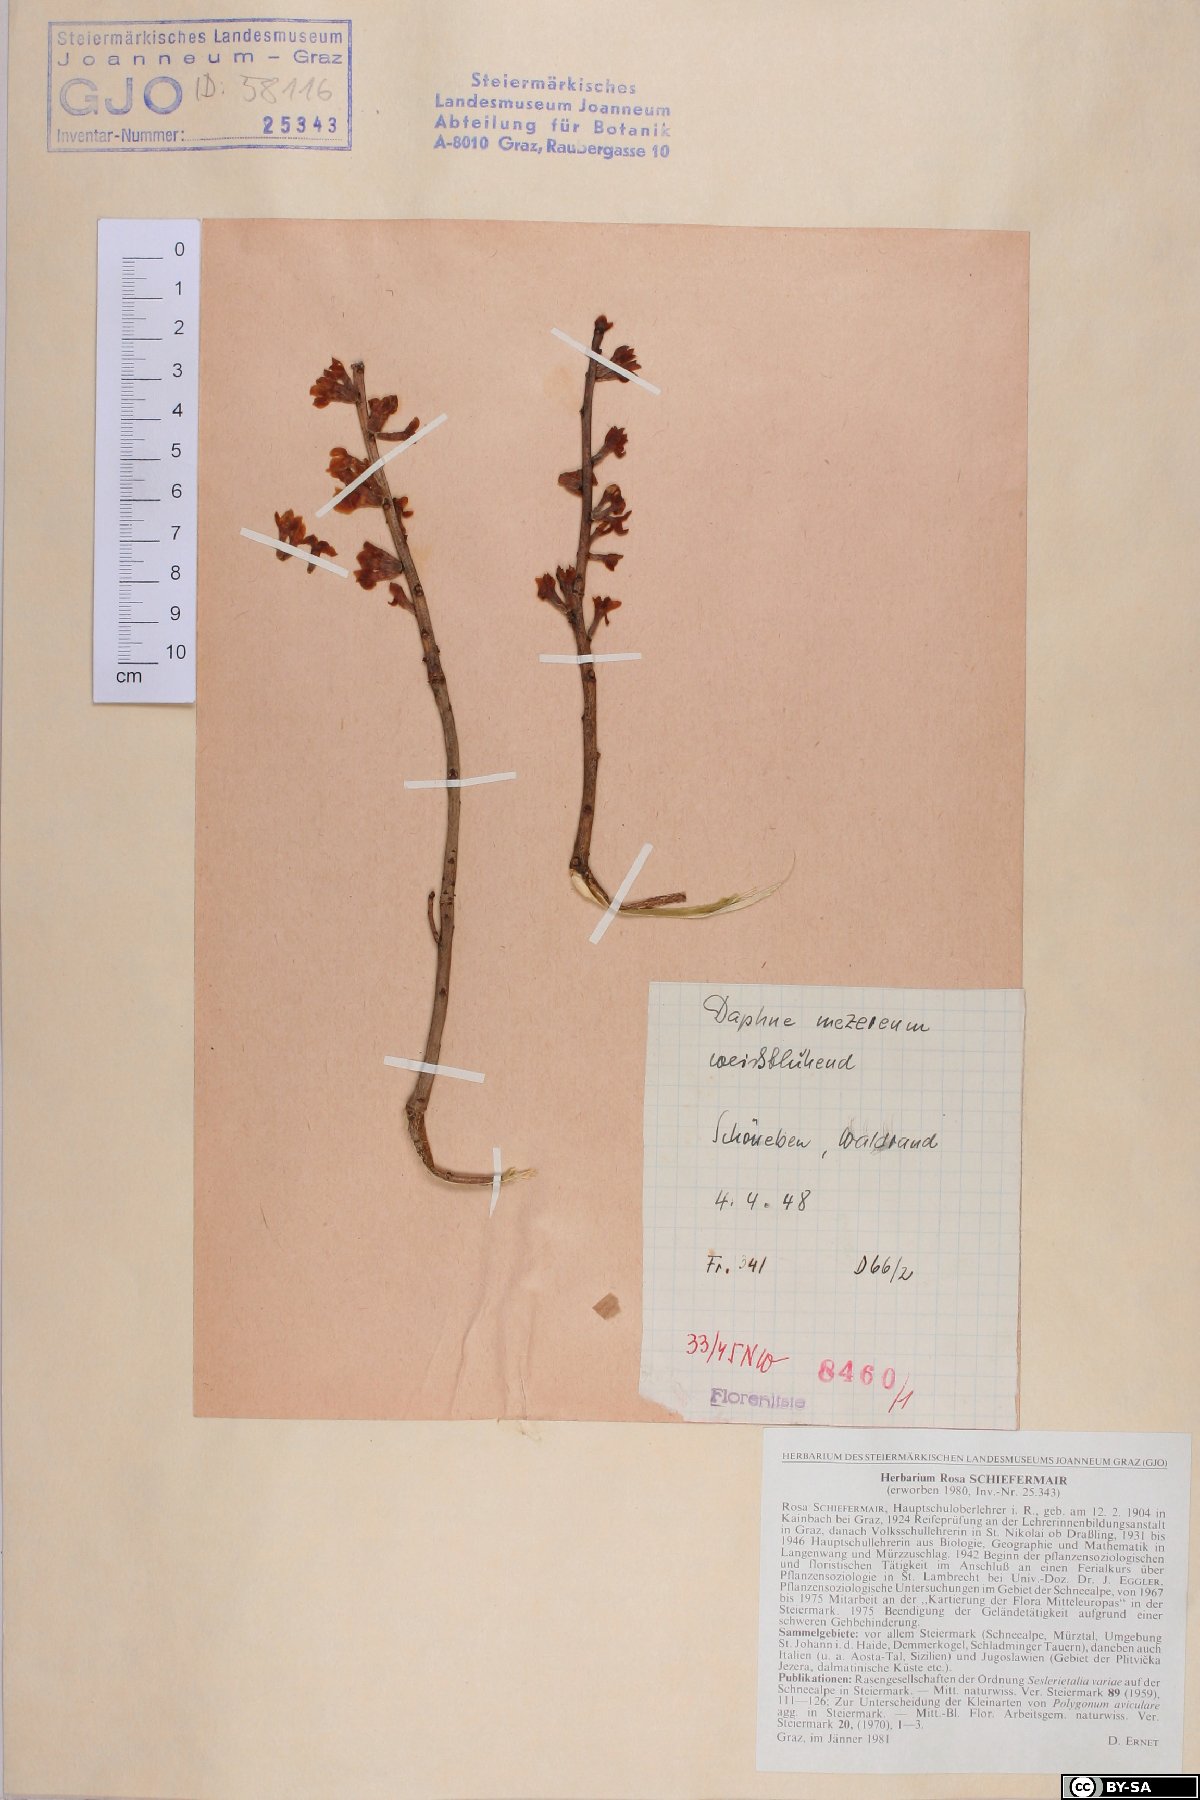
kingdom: Plantae
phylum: Tracheophyta
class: Magnoliopsida
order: Malvales
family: Thymelaeaceae
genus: Daphne
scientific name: Daphne mezereum
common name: Mezereon
